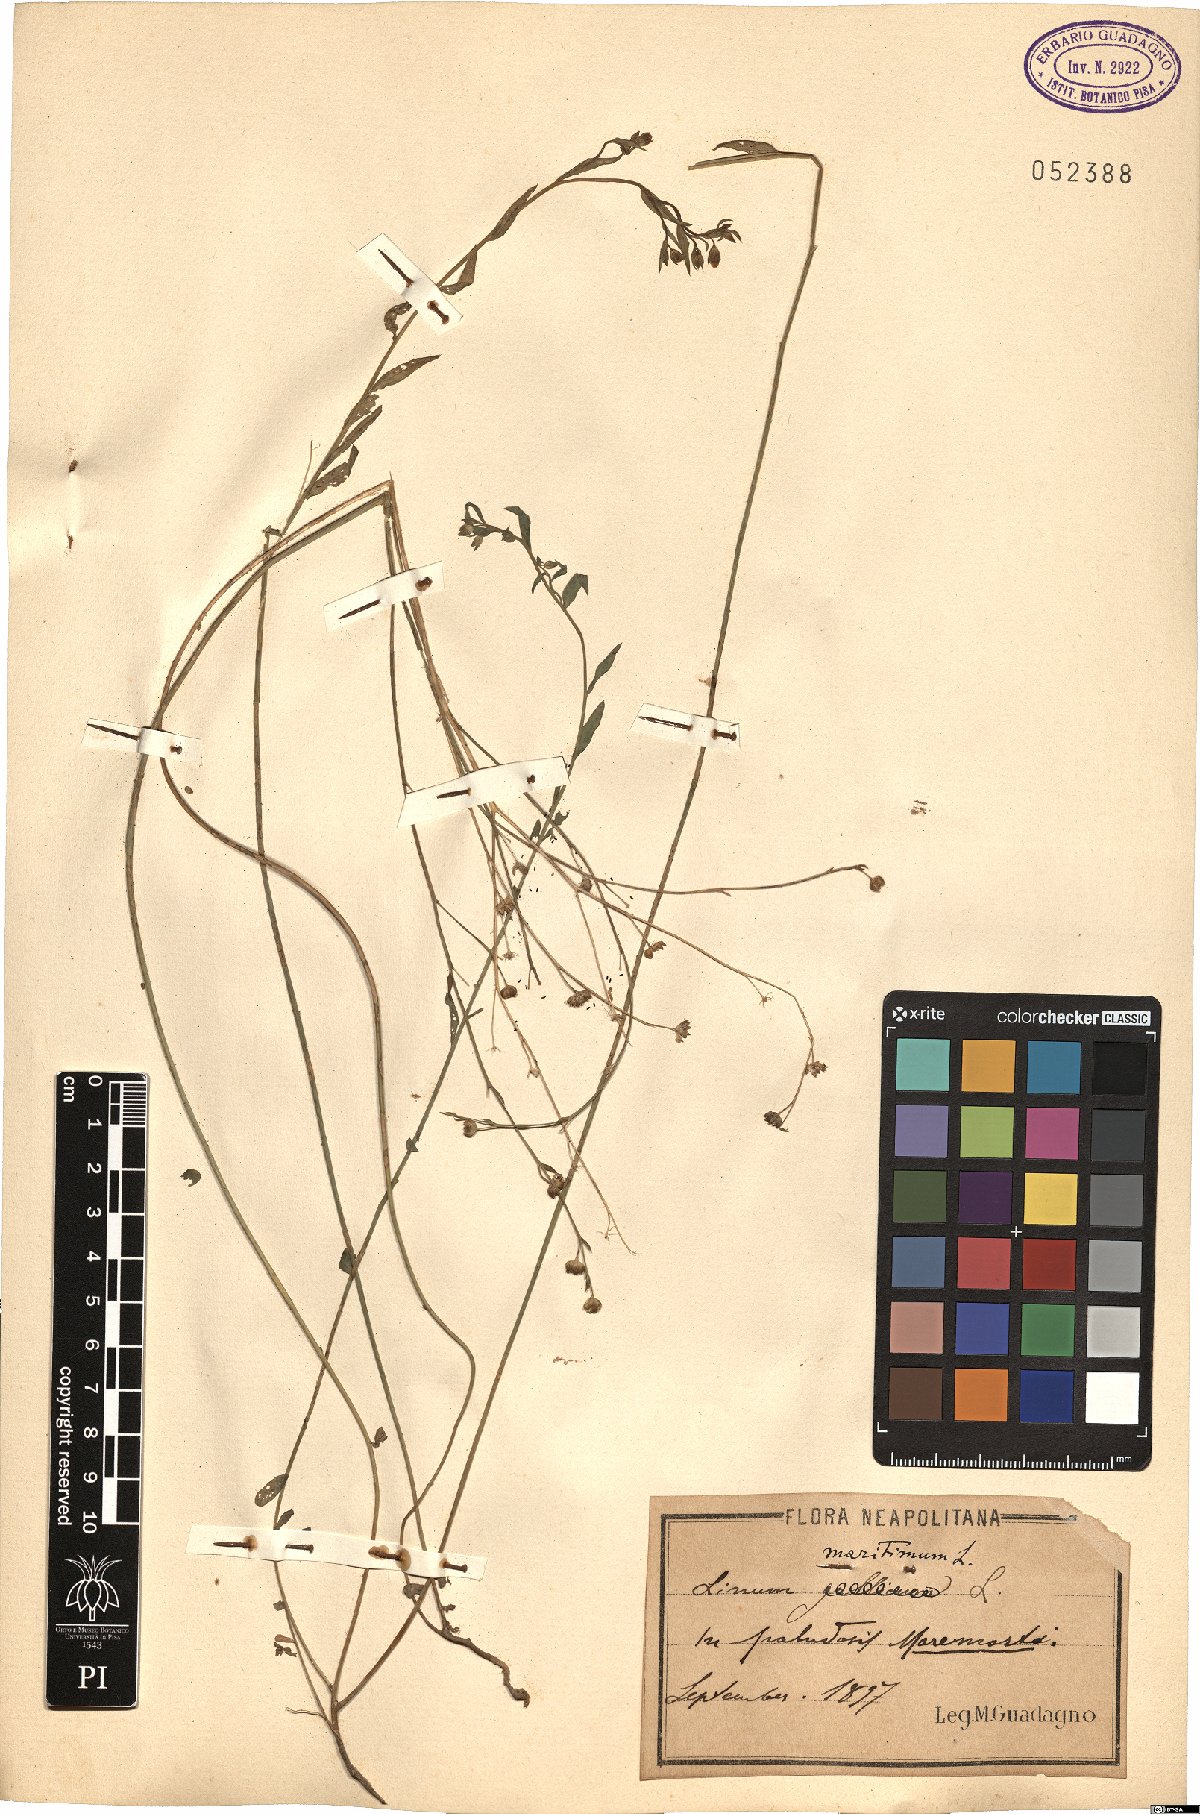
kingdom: Plantae
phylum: Tracheophyta
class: Magnoliopsida
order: Malpighiales
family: Linaceae
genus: Linum
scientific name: Linum maritimum
